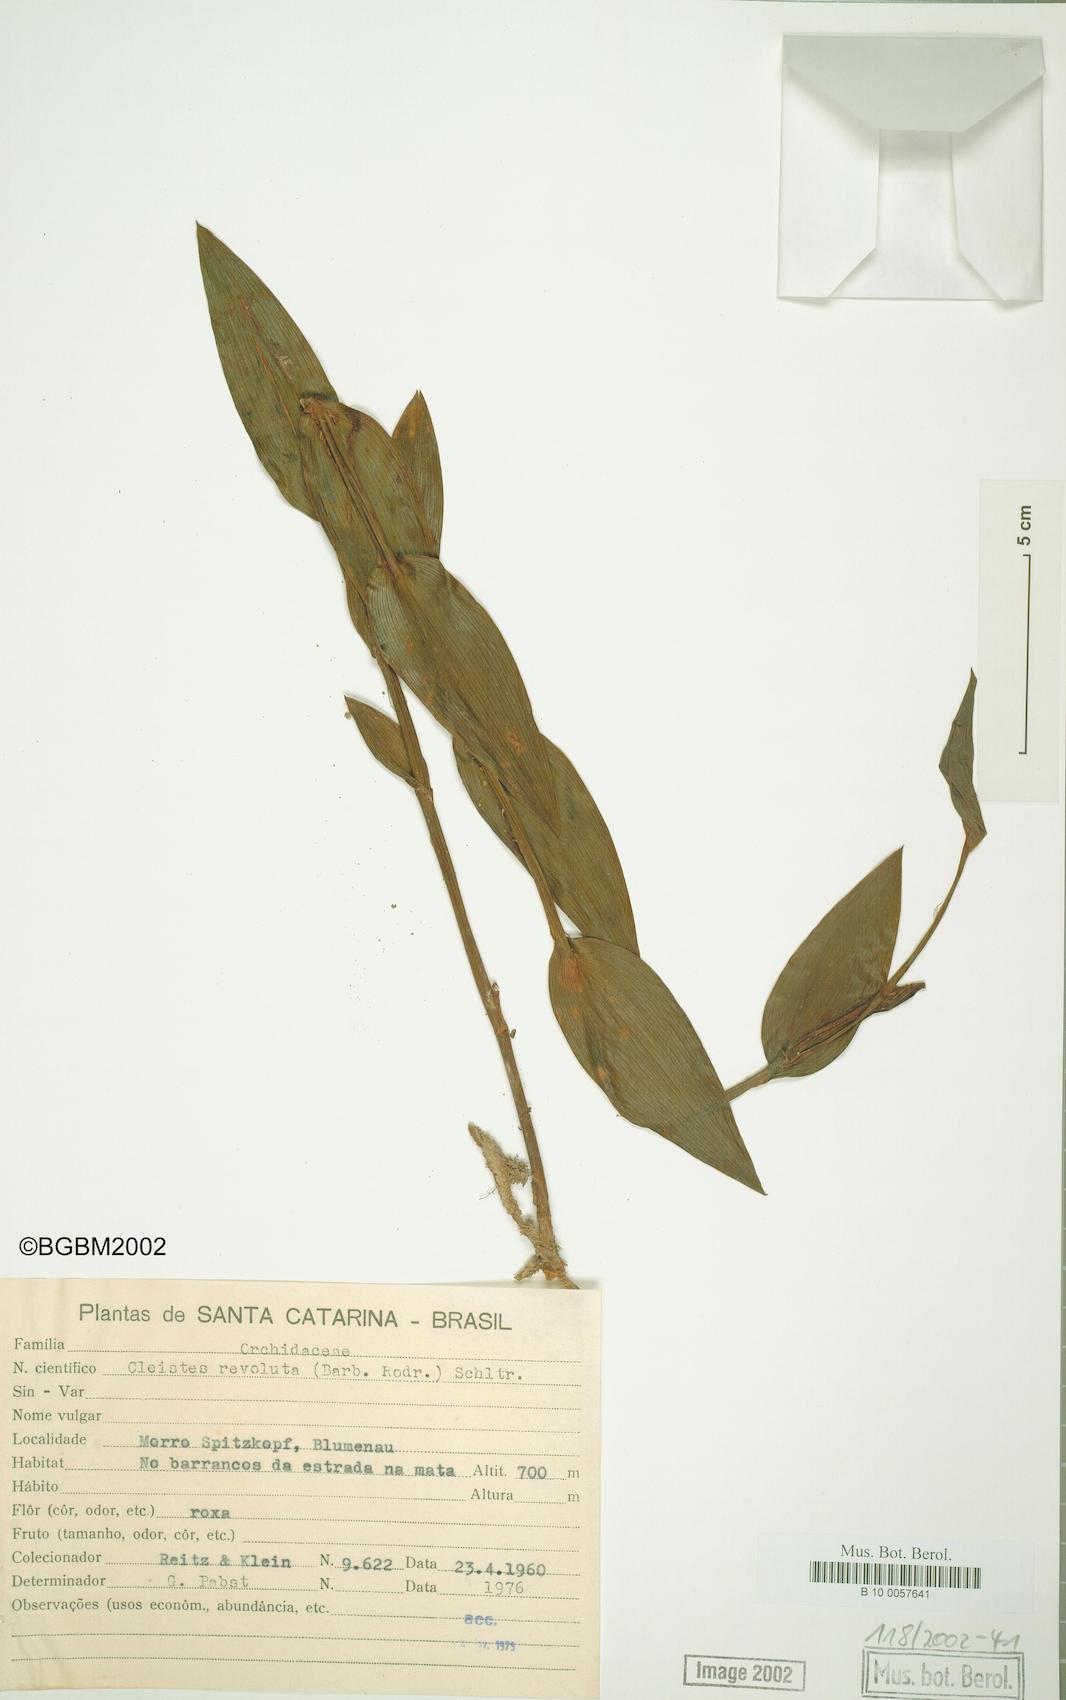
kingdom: Plantae
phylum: Tracheophyta
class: Liliopsida
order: Asparagales
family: Orchidaceae
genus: Cleistes
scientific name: Cleistes libonii
